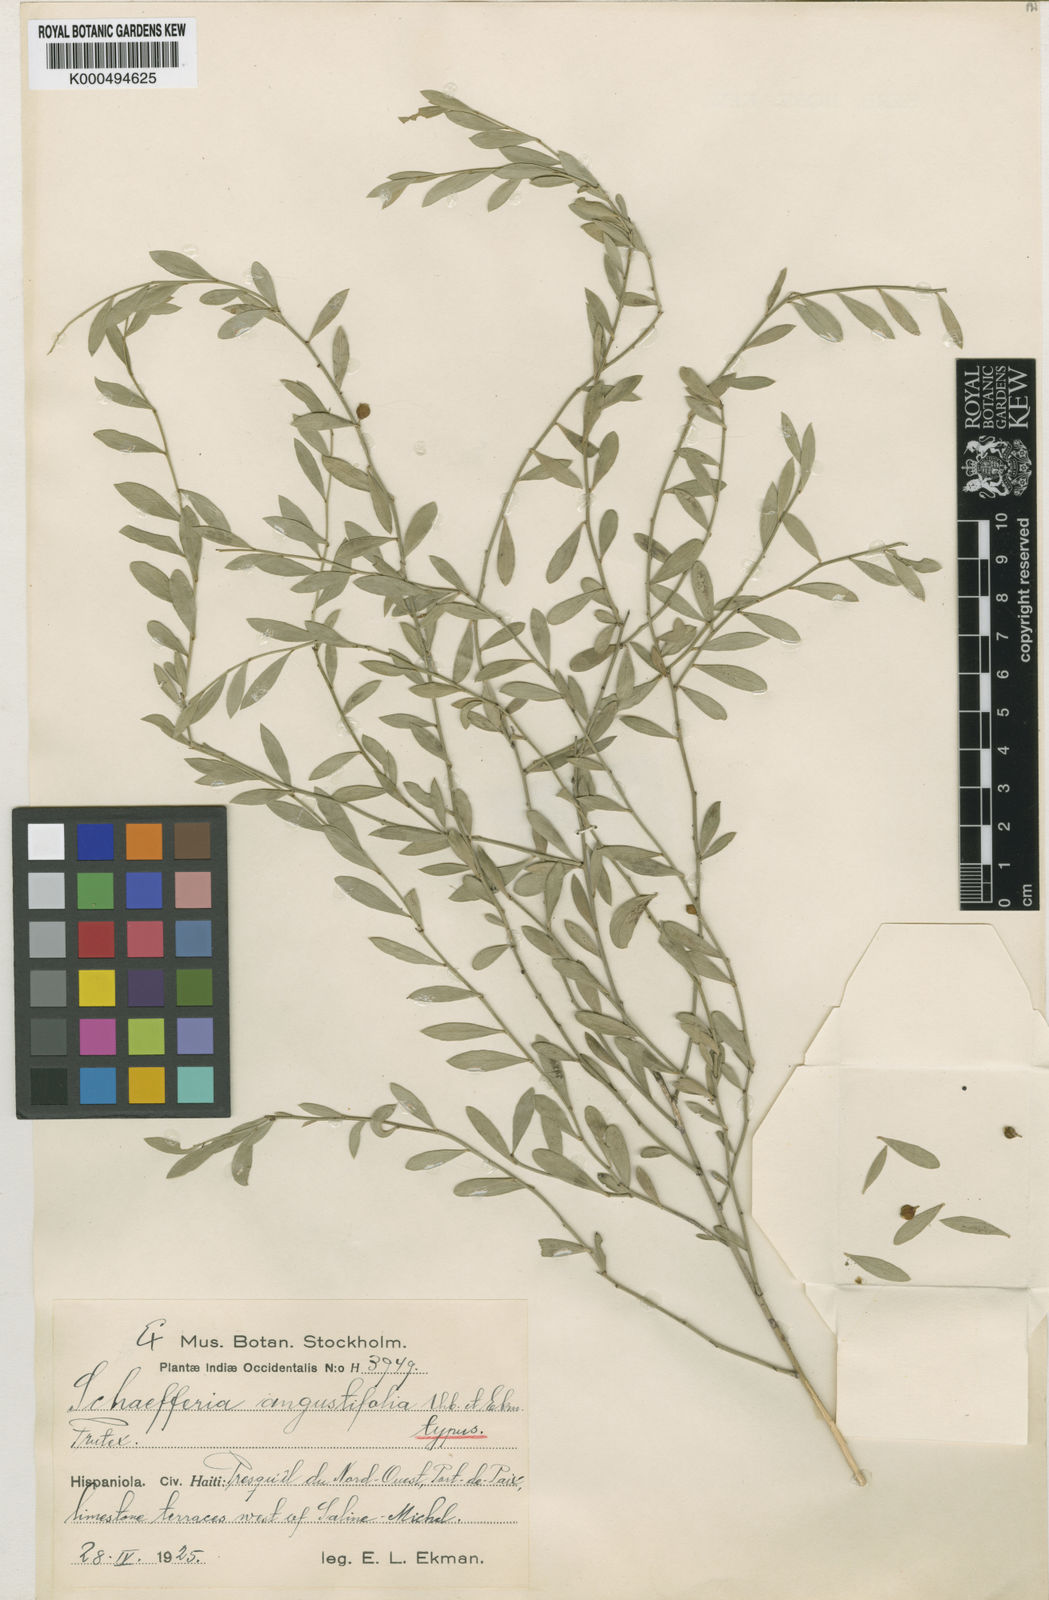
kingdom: Plantae
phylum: Tracheophyta
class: Magnoliopsida
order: Celastrales
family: Celastraceae
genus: Schaefferia
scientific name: Schaefferia angustifolia
